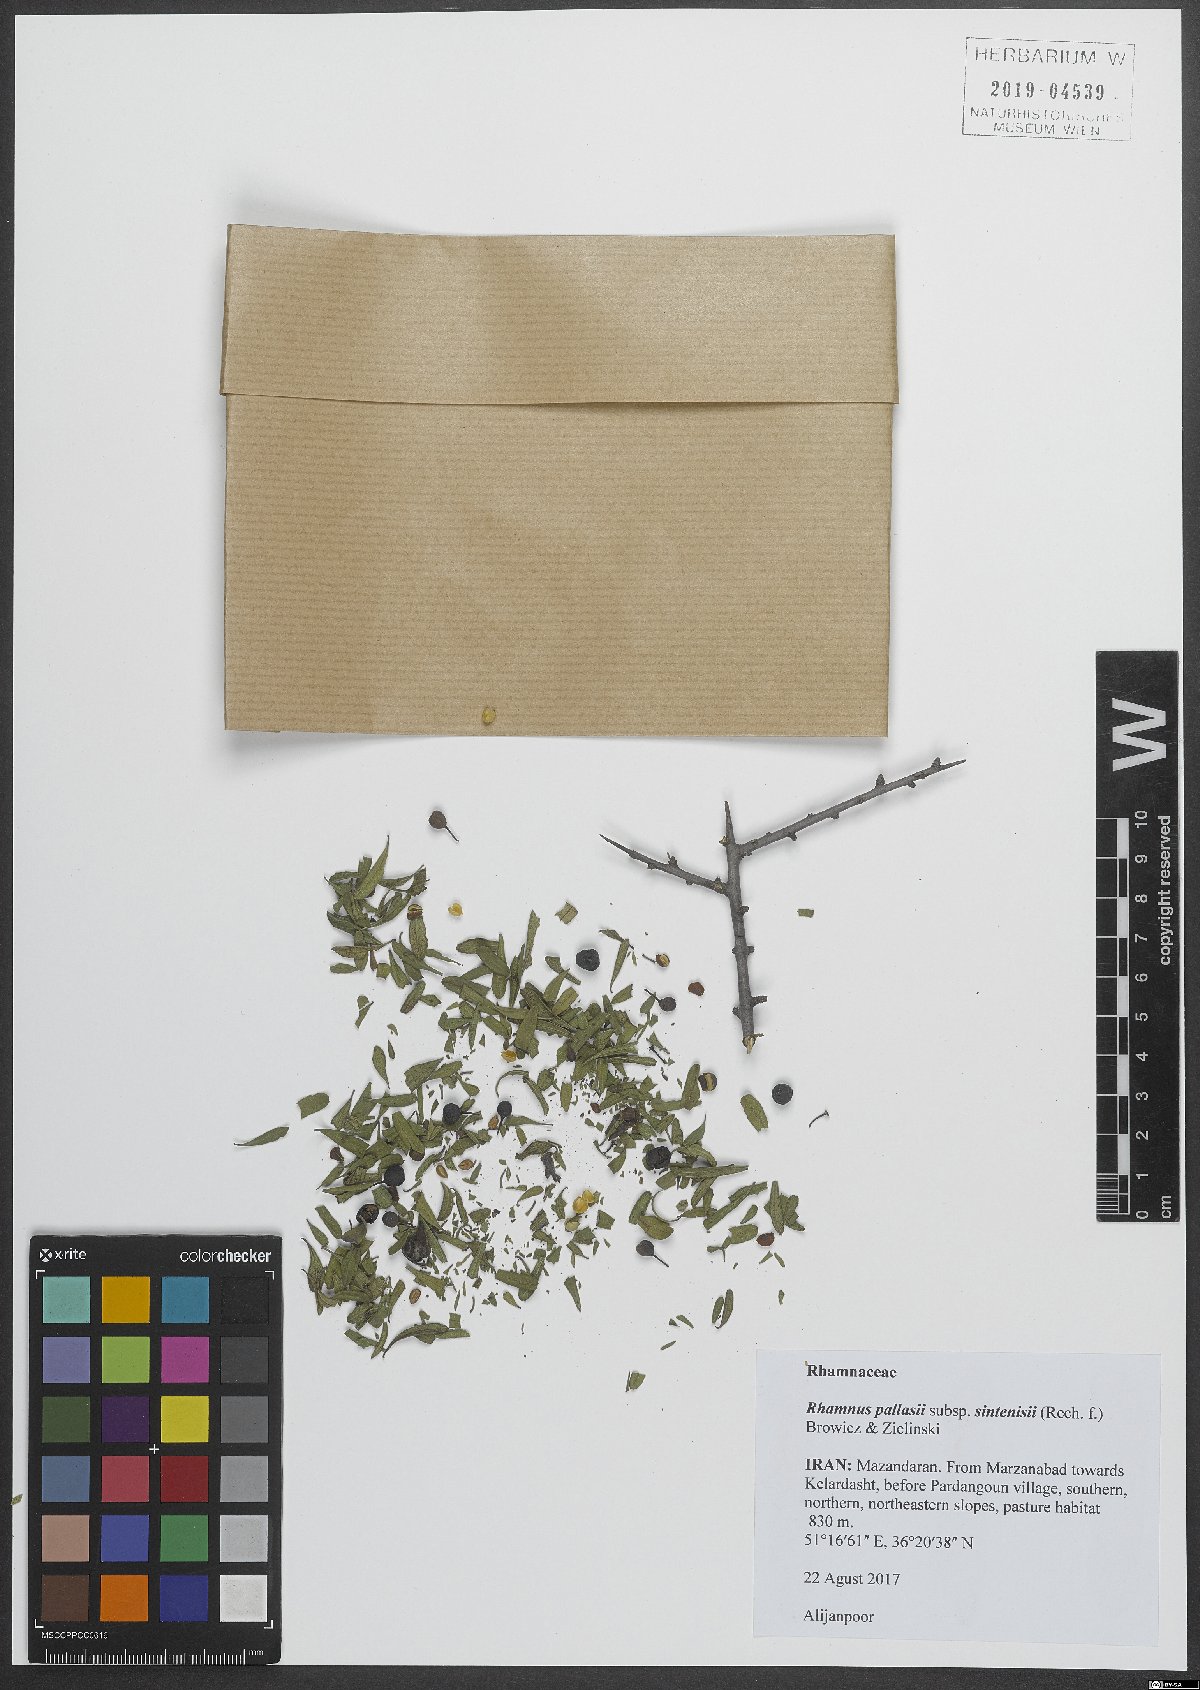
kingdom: Plantae
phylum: Tracheophyta
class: Magnoliopsida
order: Rosales
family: Rhamnaceae
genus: Rhamnus
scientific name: Rhamnus erythroxyloides
